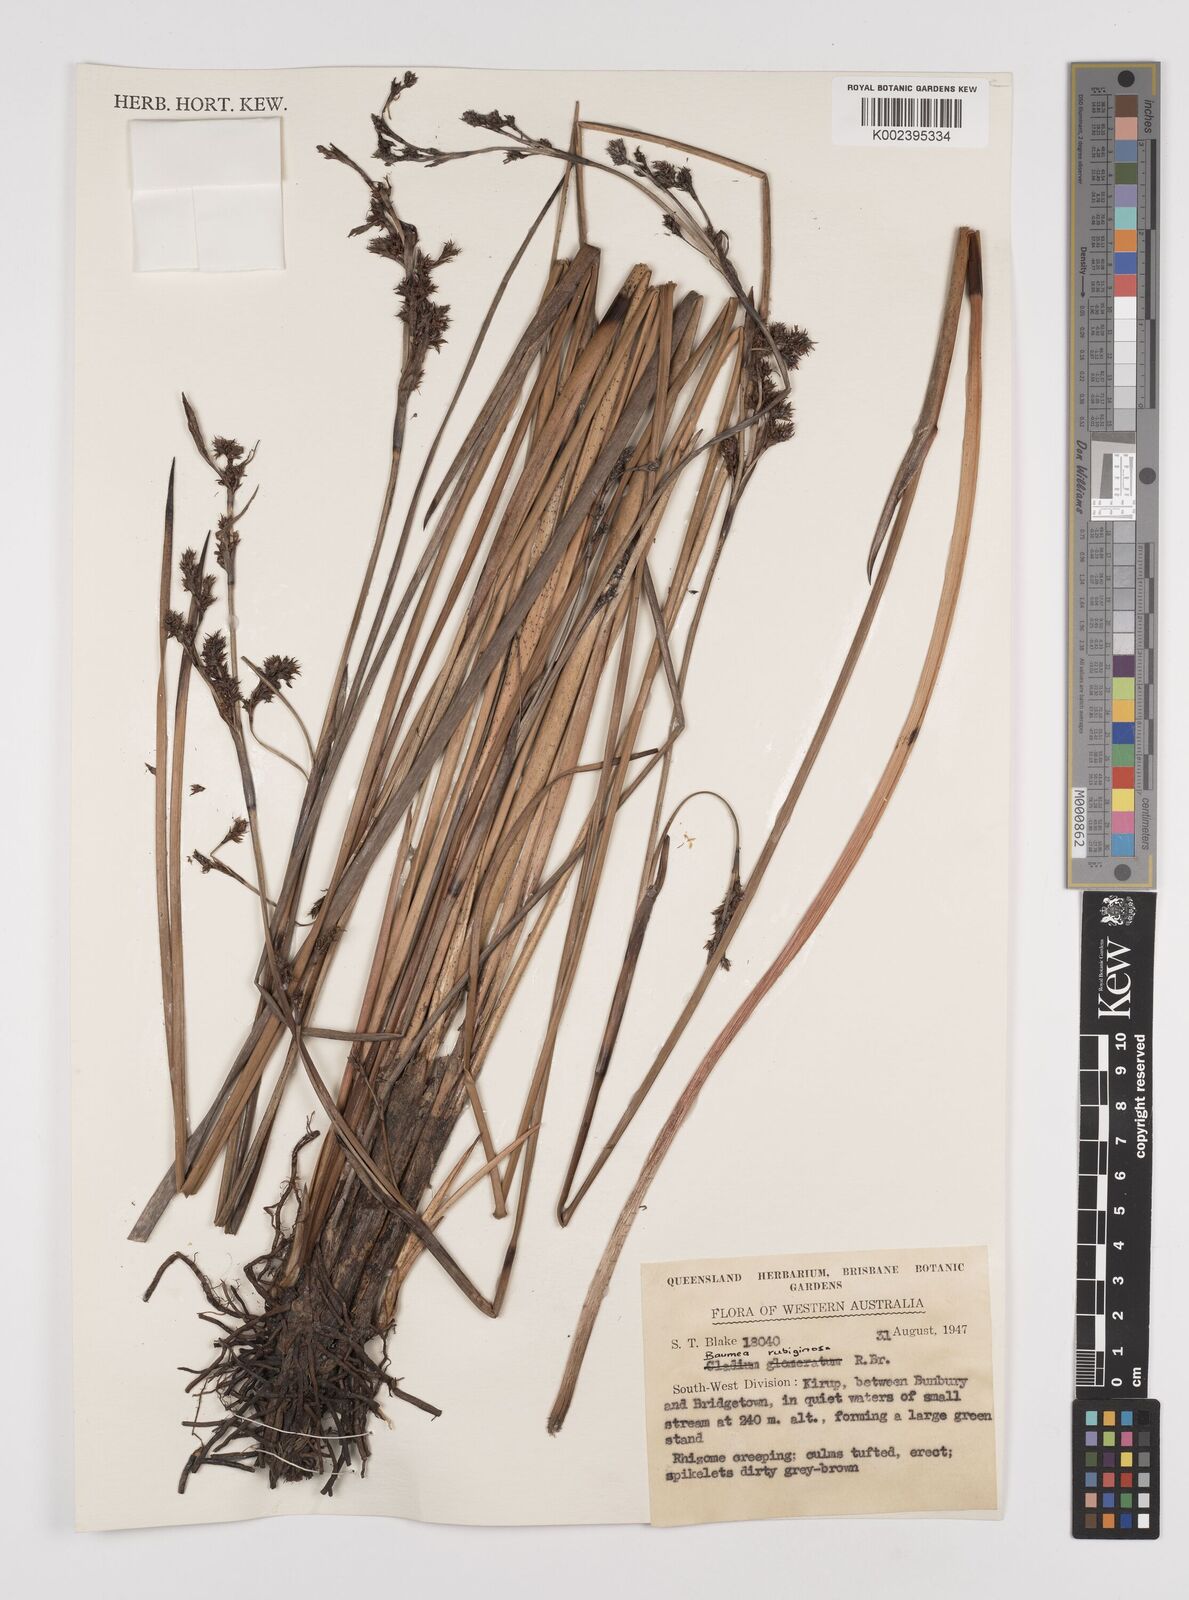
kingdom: Plantae
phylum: Tracheophyta
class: Liliopsida
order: Poales
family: Cyperaceae
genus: Machaerina
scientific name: Machaerina rubiginosa
